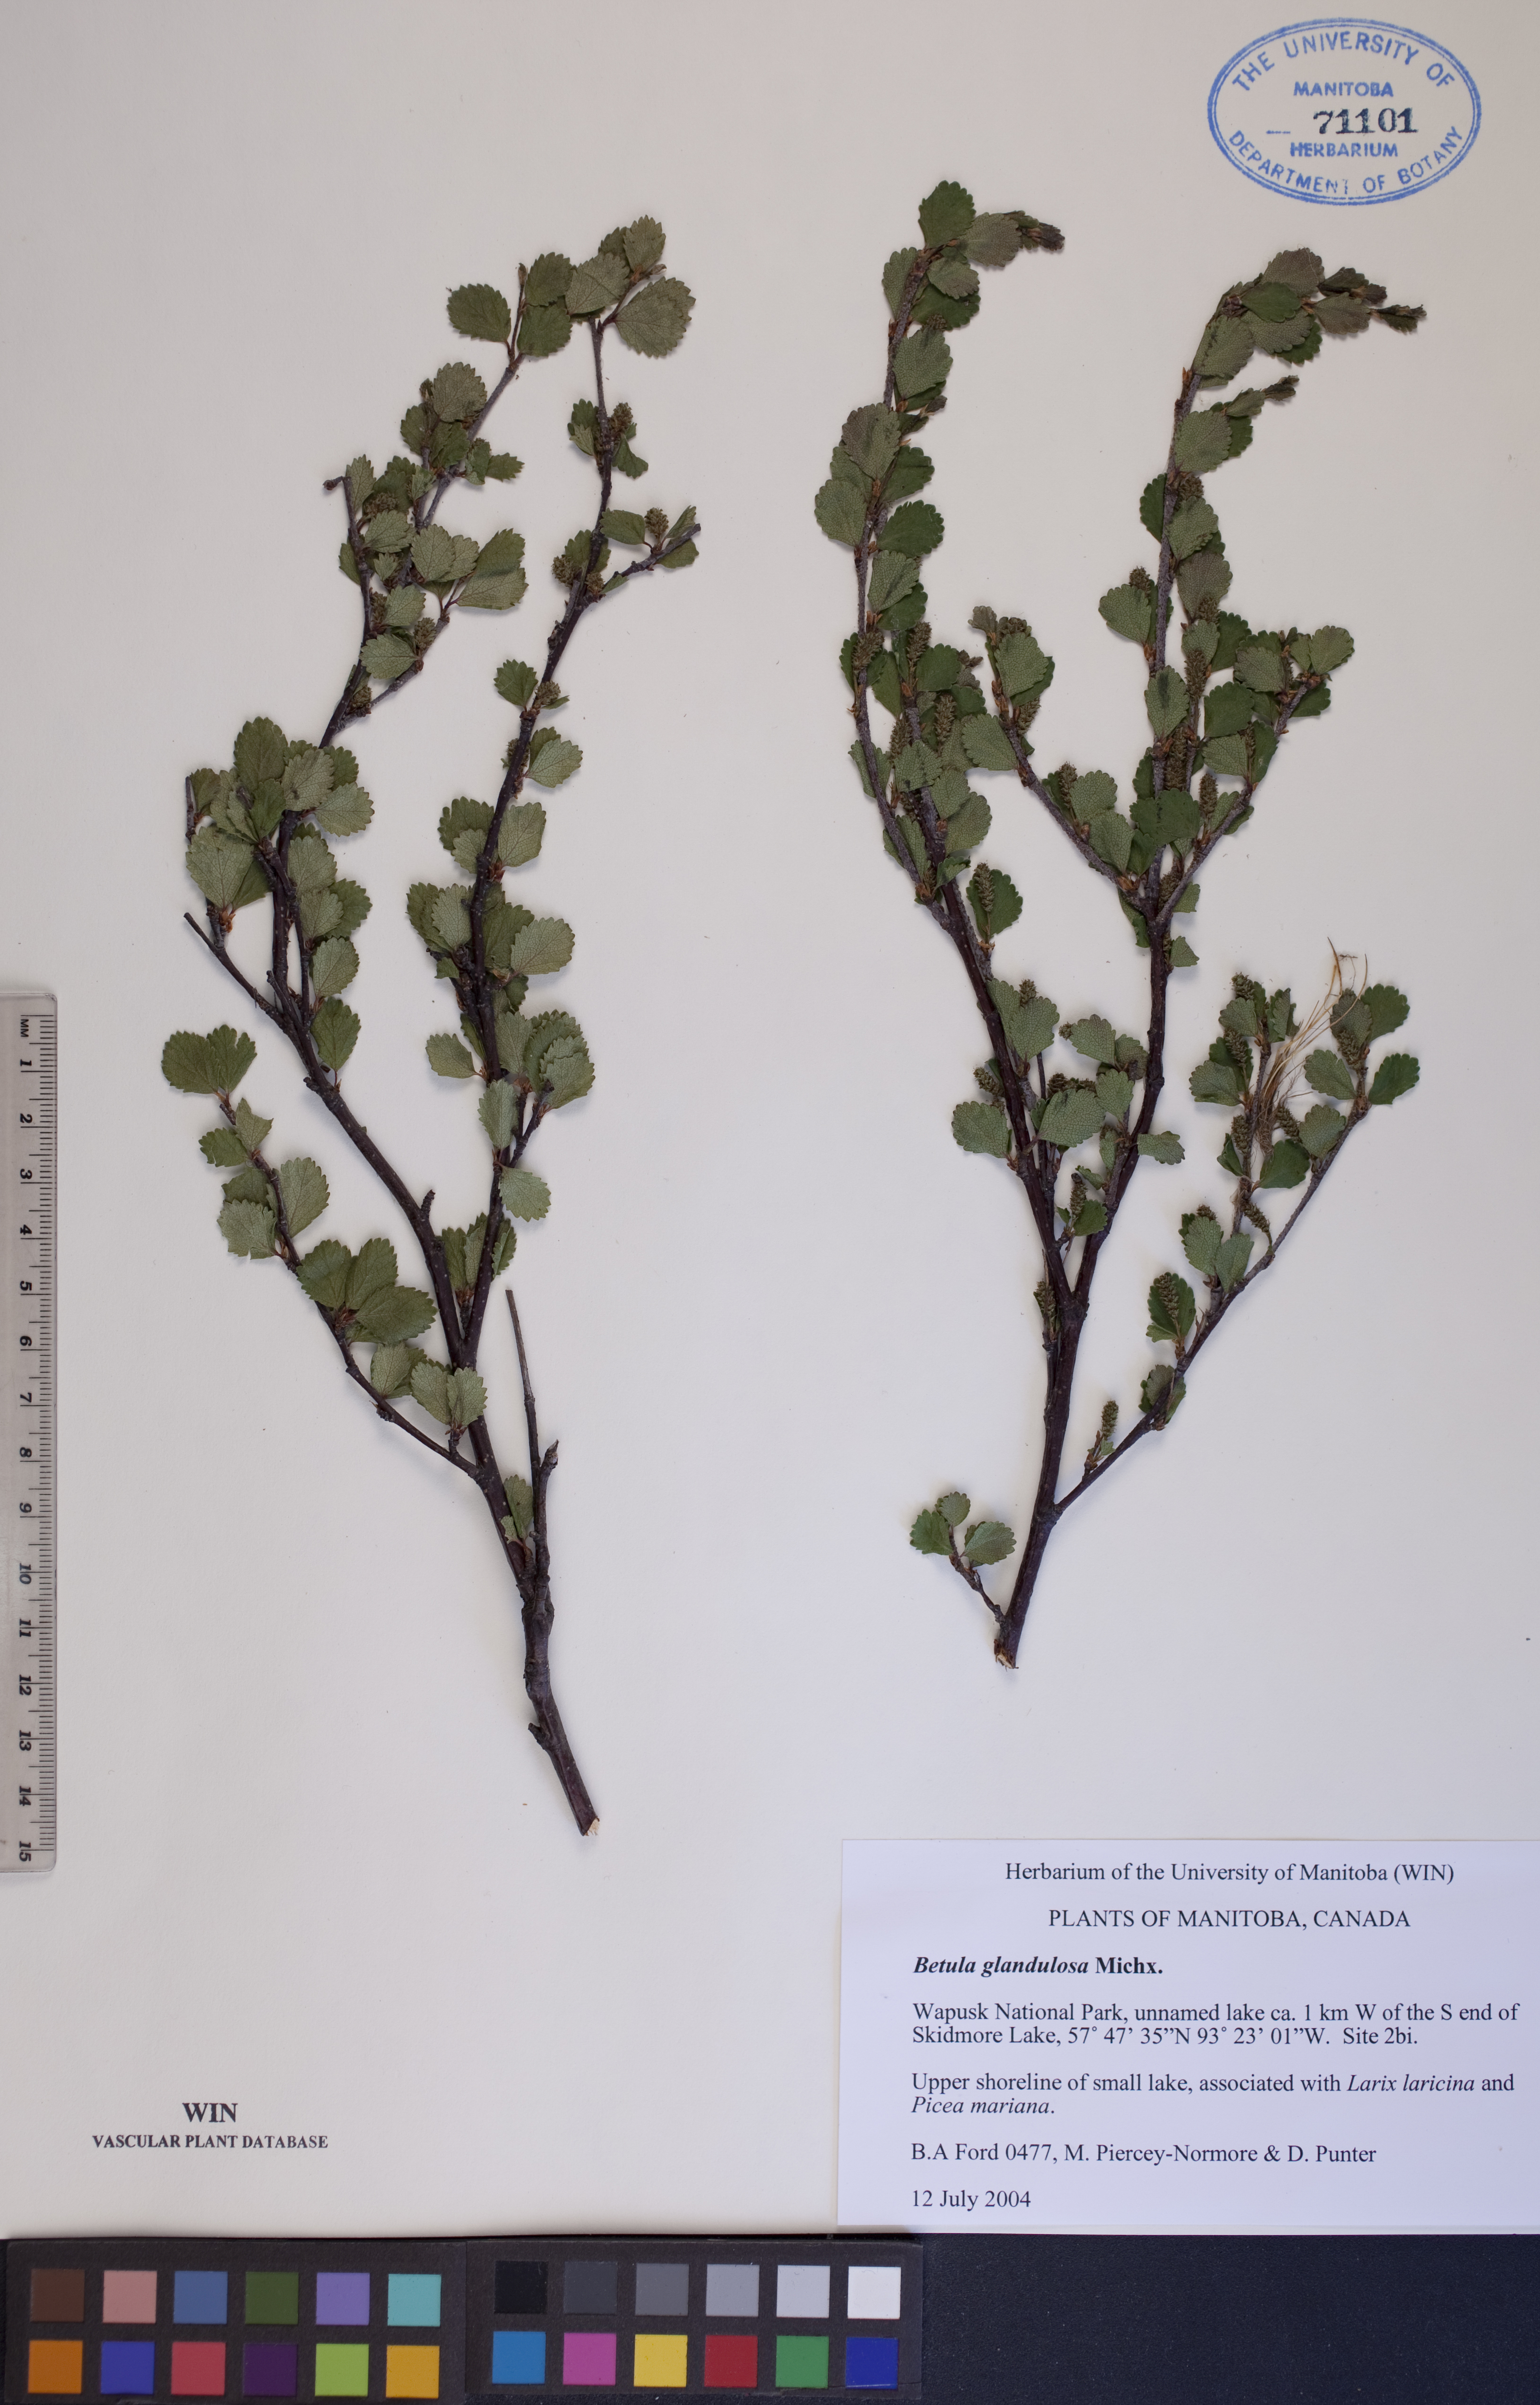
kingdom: Plantae
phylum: Tracheophyta
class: Magnoliopsida
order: Fagales
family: Betulaceae
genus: Betula
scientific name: Betula glandulosa
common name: Dwarf birch
